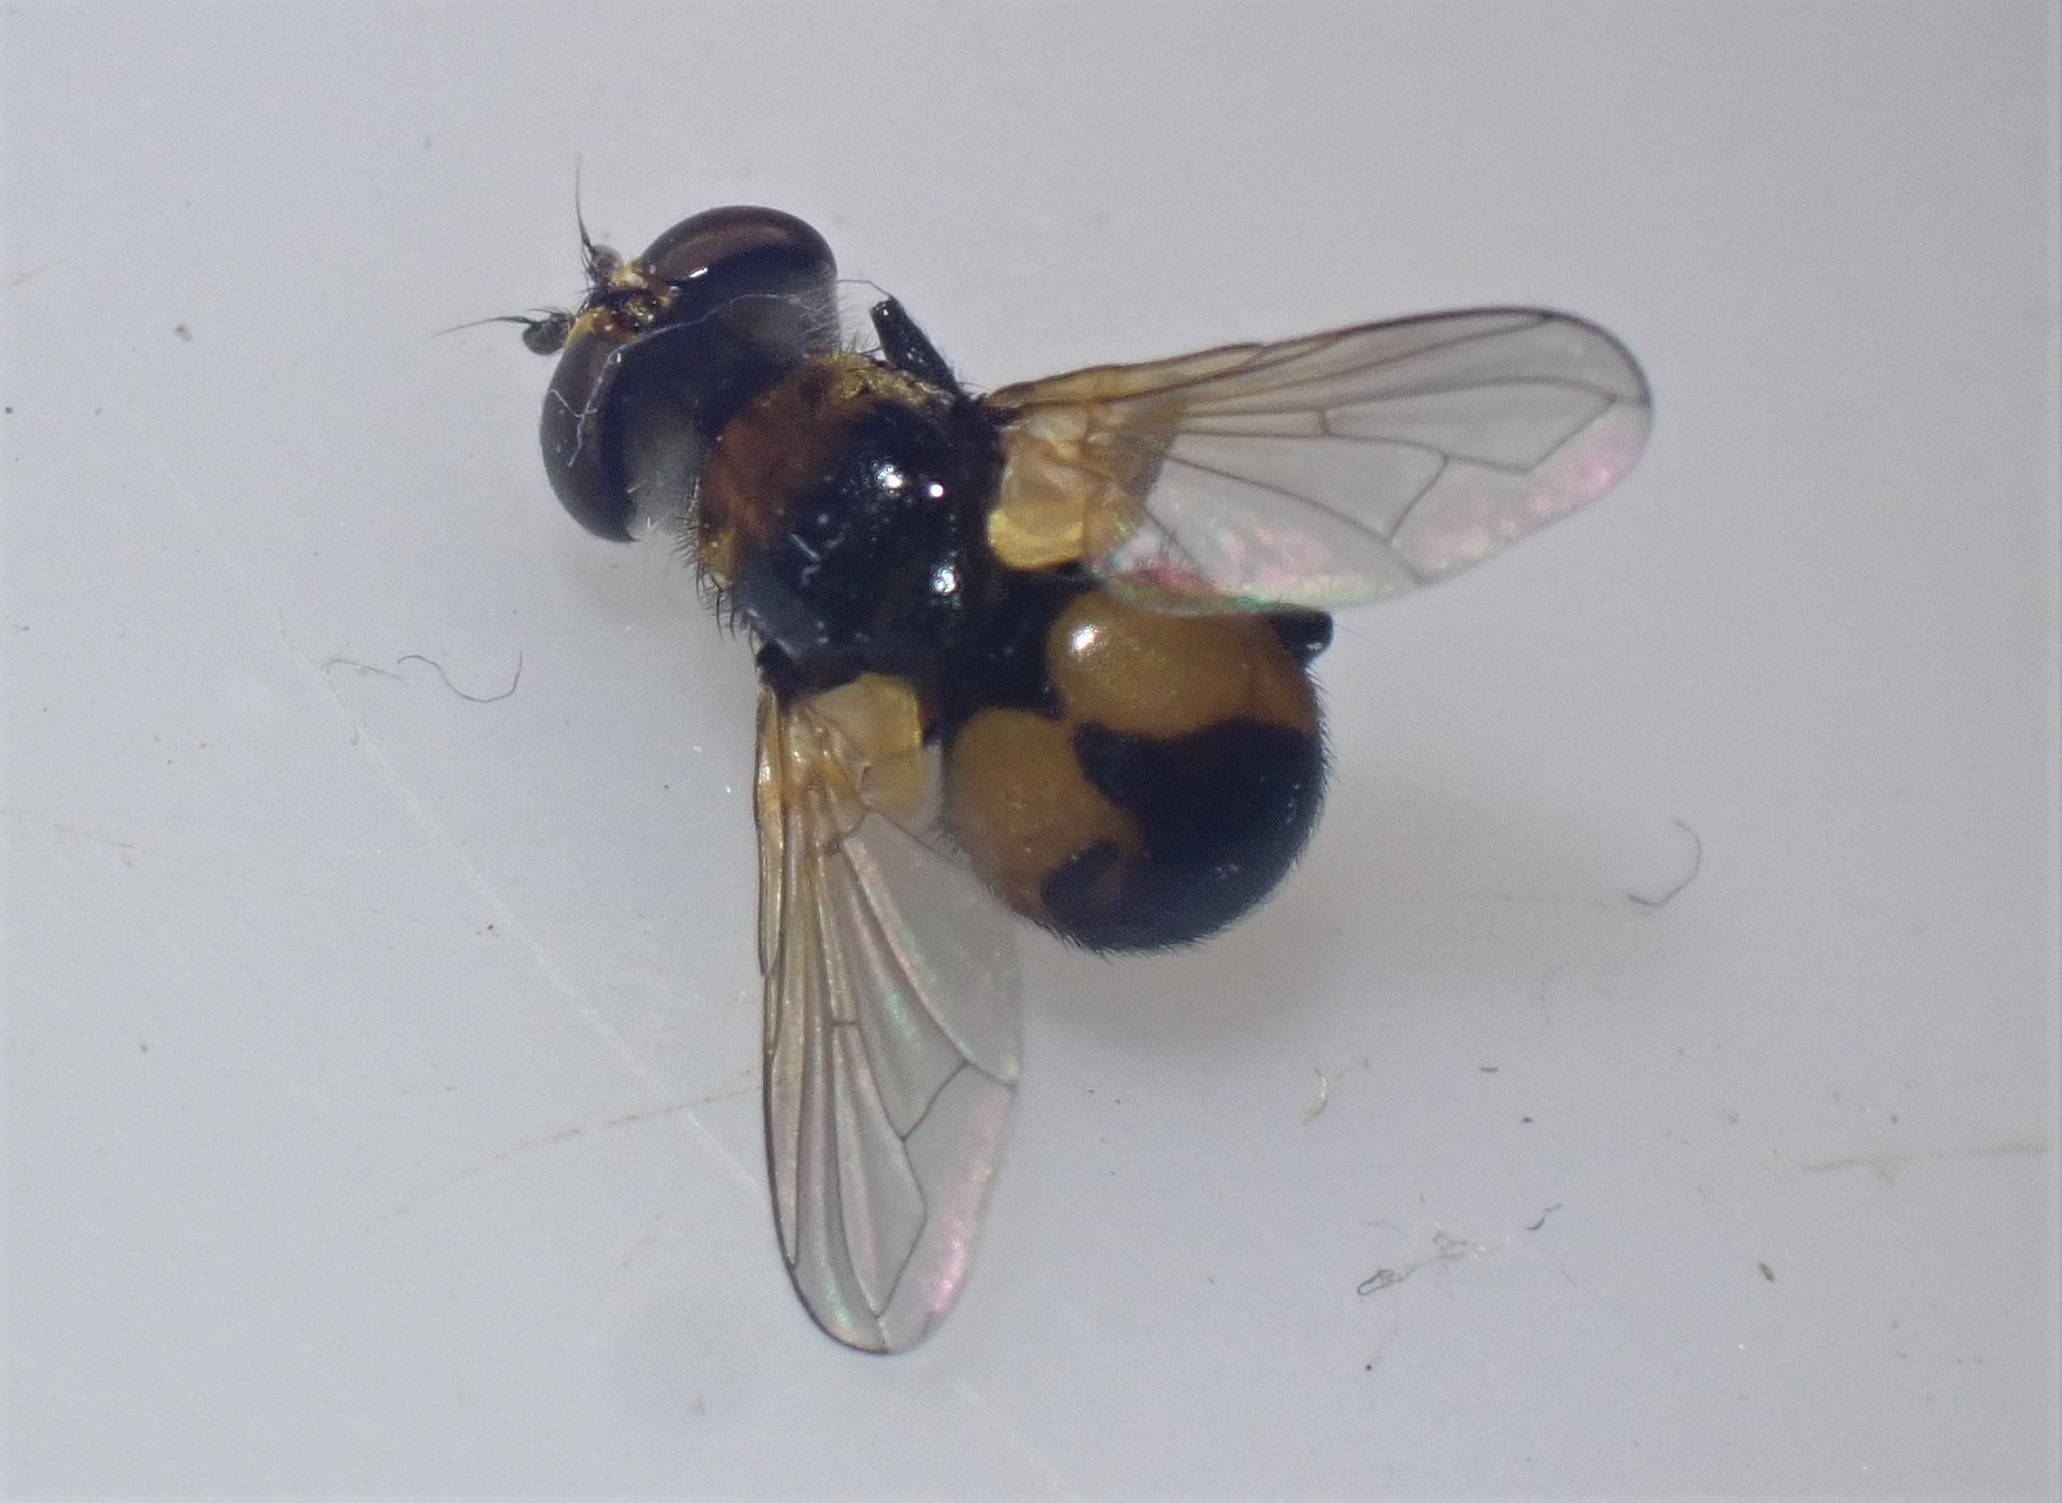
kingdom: Animalia
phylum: Arthropoda
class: Insecta
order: Diptera
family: Tachinidae
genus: Cistogaster
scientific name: Cistogaster globosa
